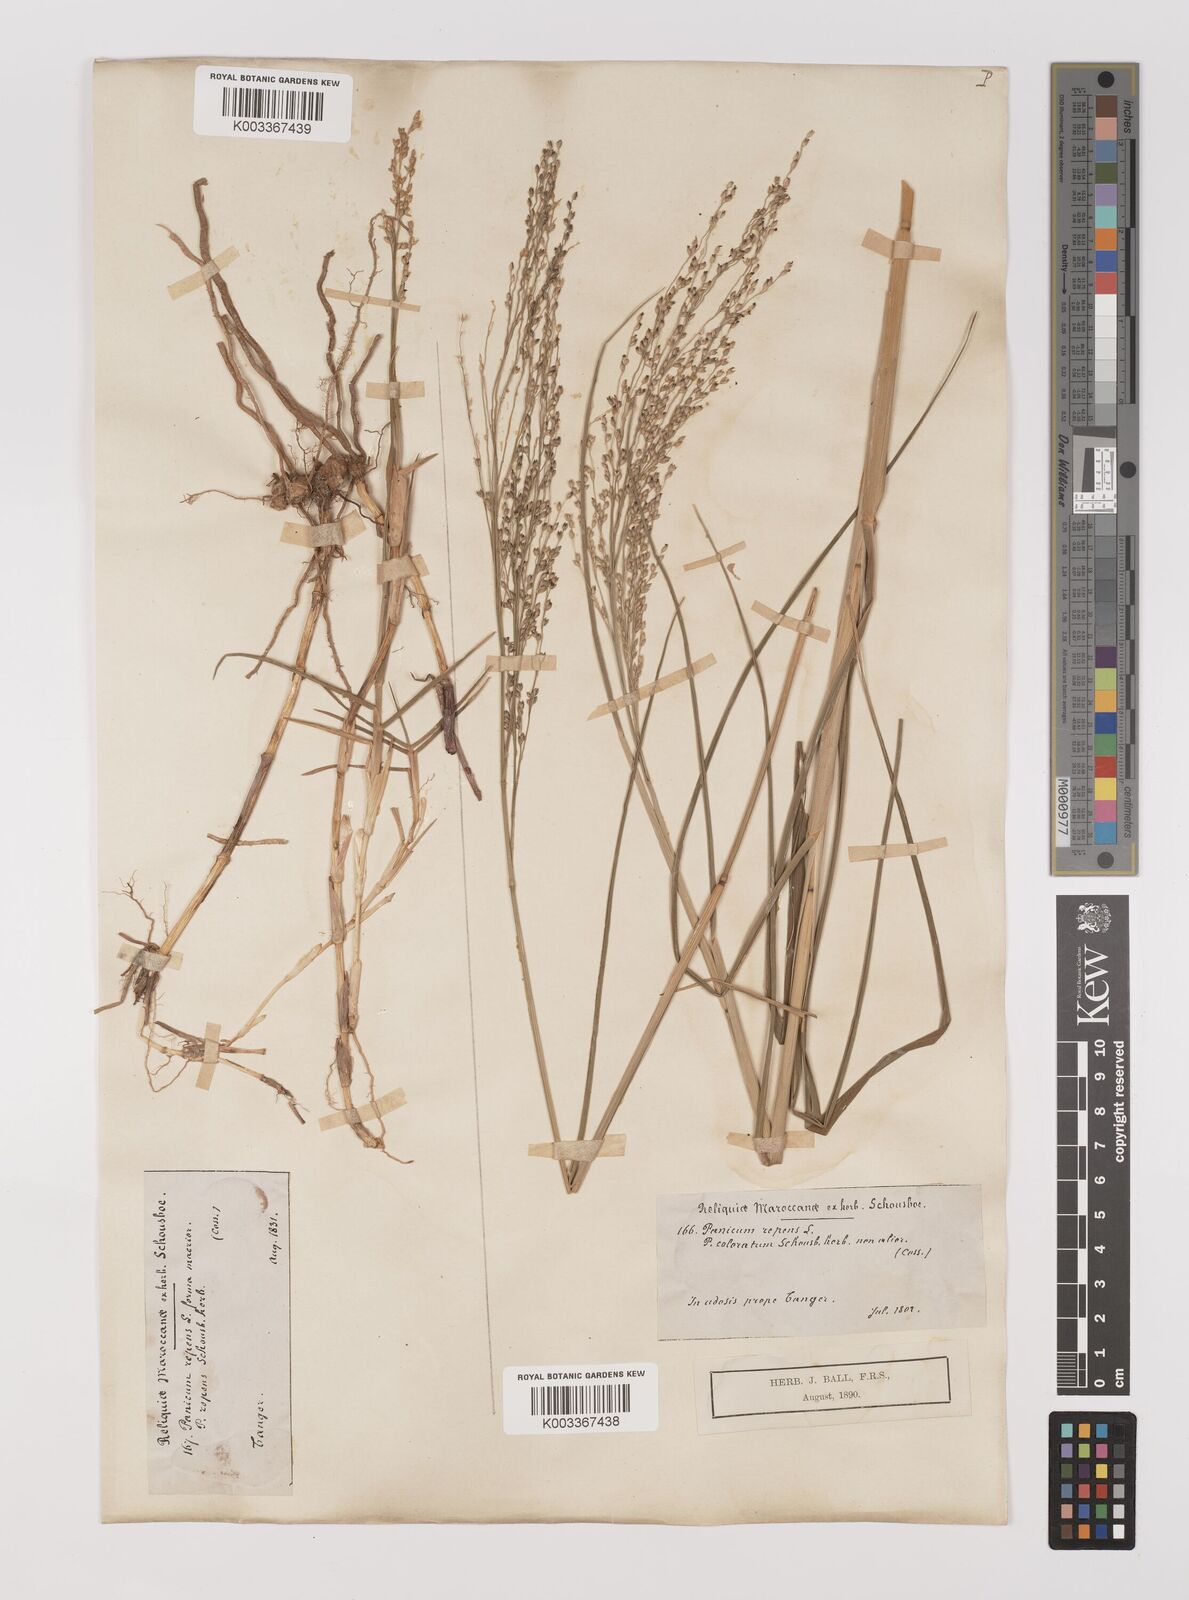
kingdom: Plantae
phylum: Tracheophyta
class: Liliopsida
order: Poales
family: Poaceae
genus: Panicum
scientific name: Panicum repens
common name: Torpedo grass
